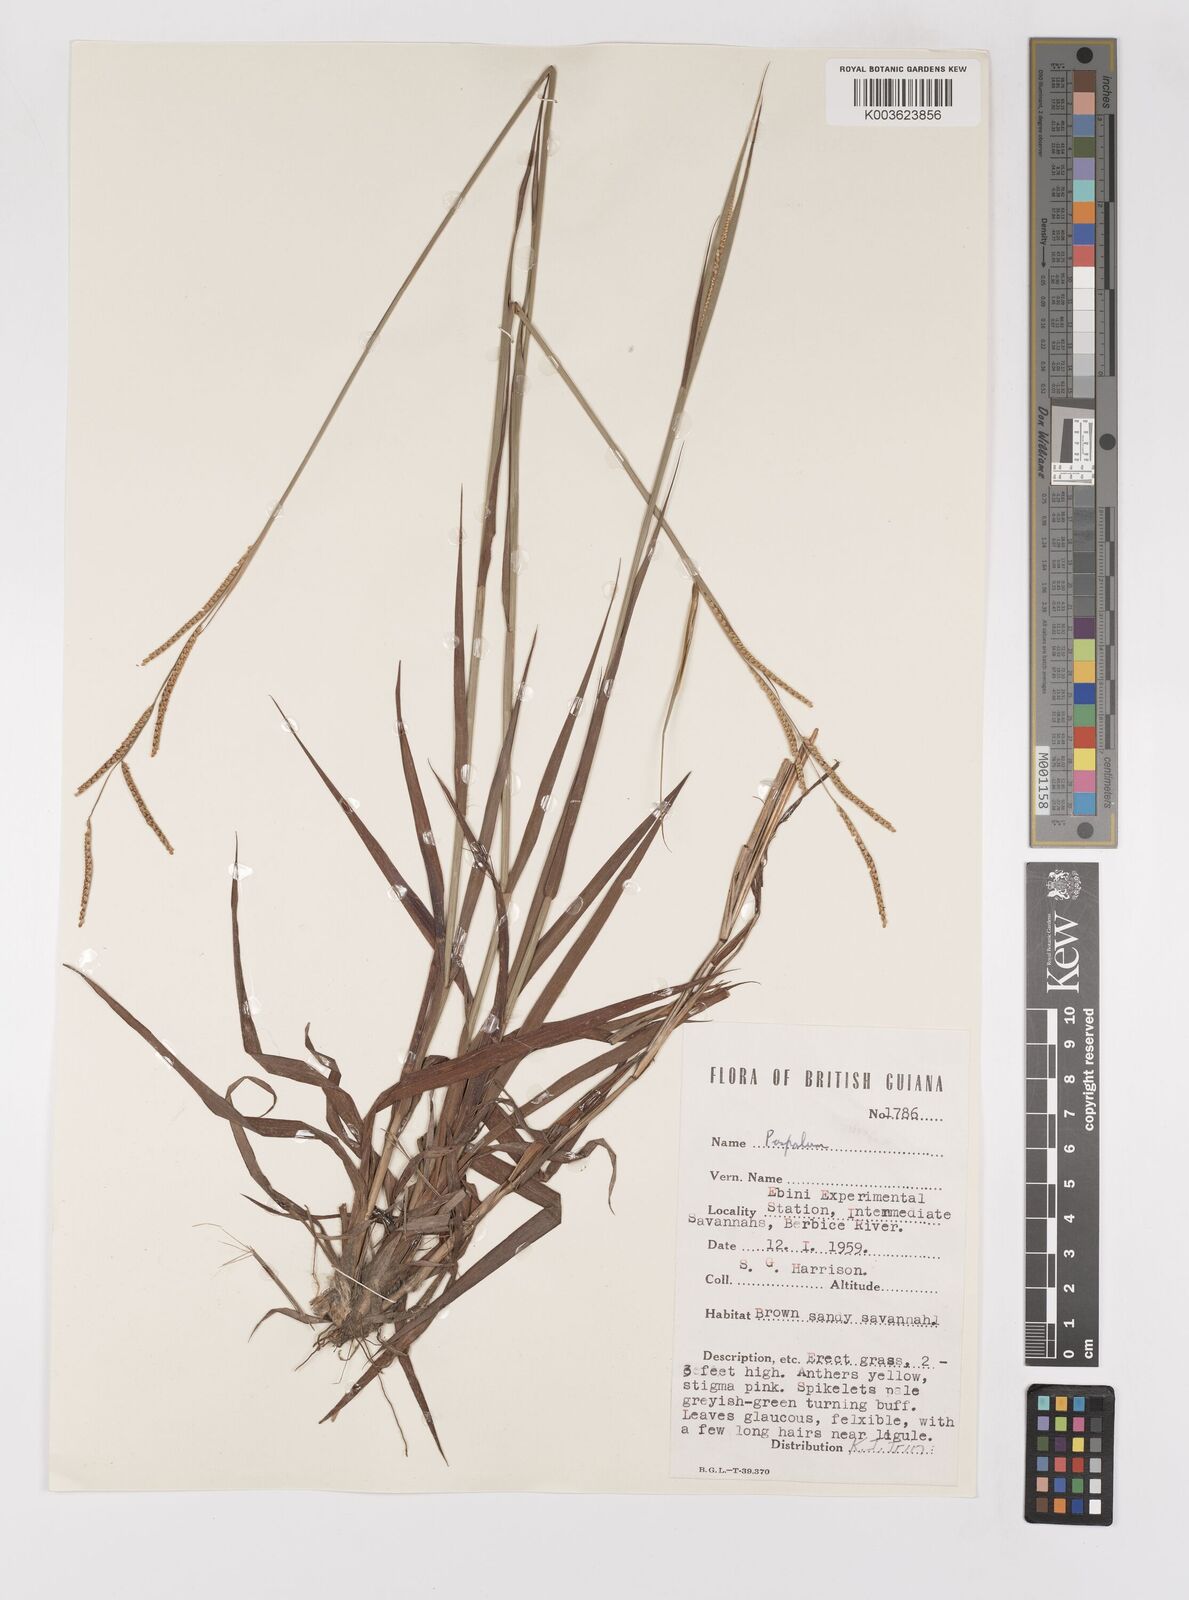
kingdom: Plantae
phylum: Tracheophyta
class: Liliopsida
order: Poales
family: Poaceae
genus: Paspalum
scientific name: Paspalum gardnerianum
